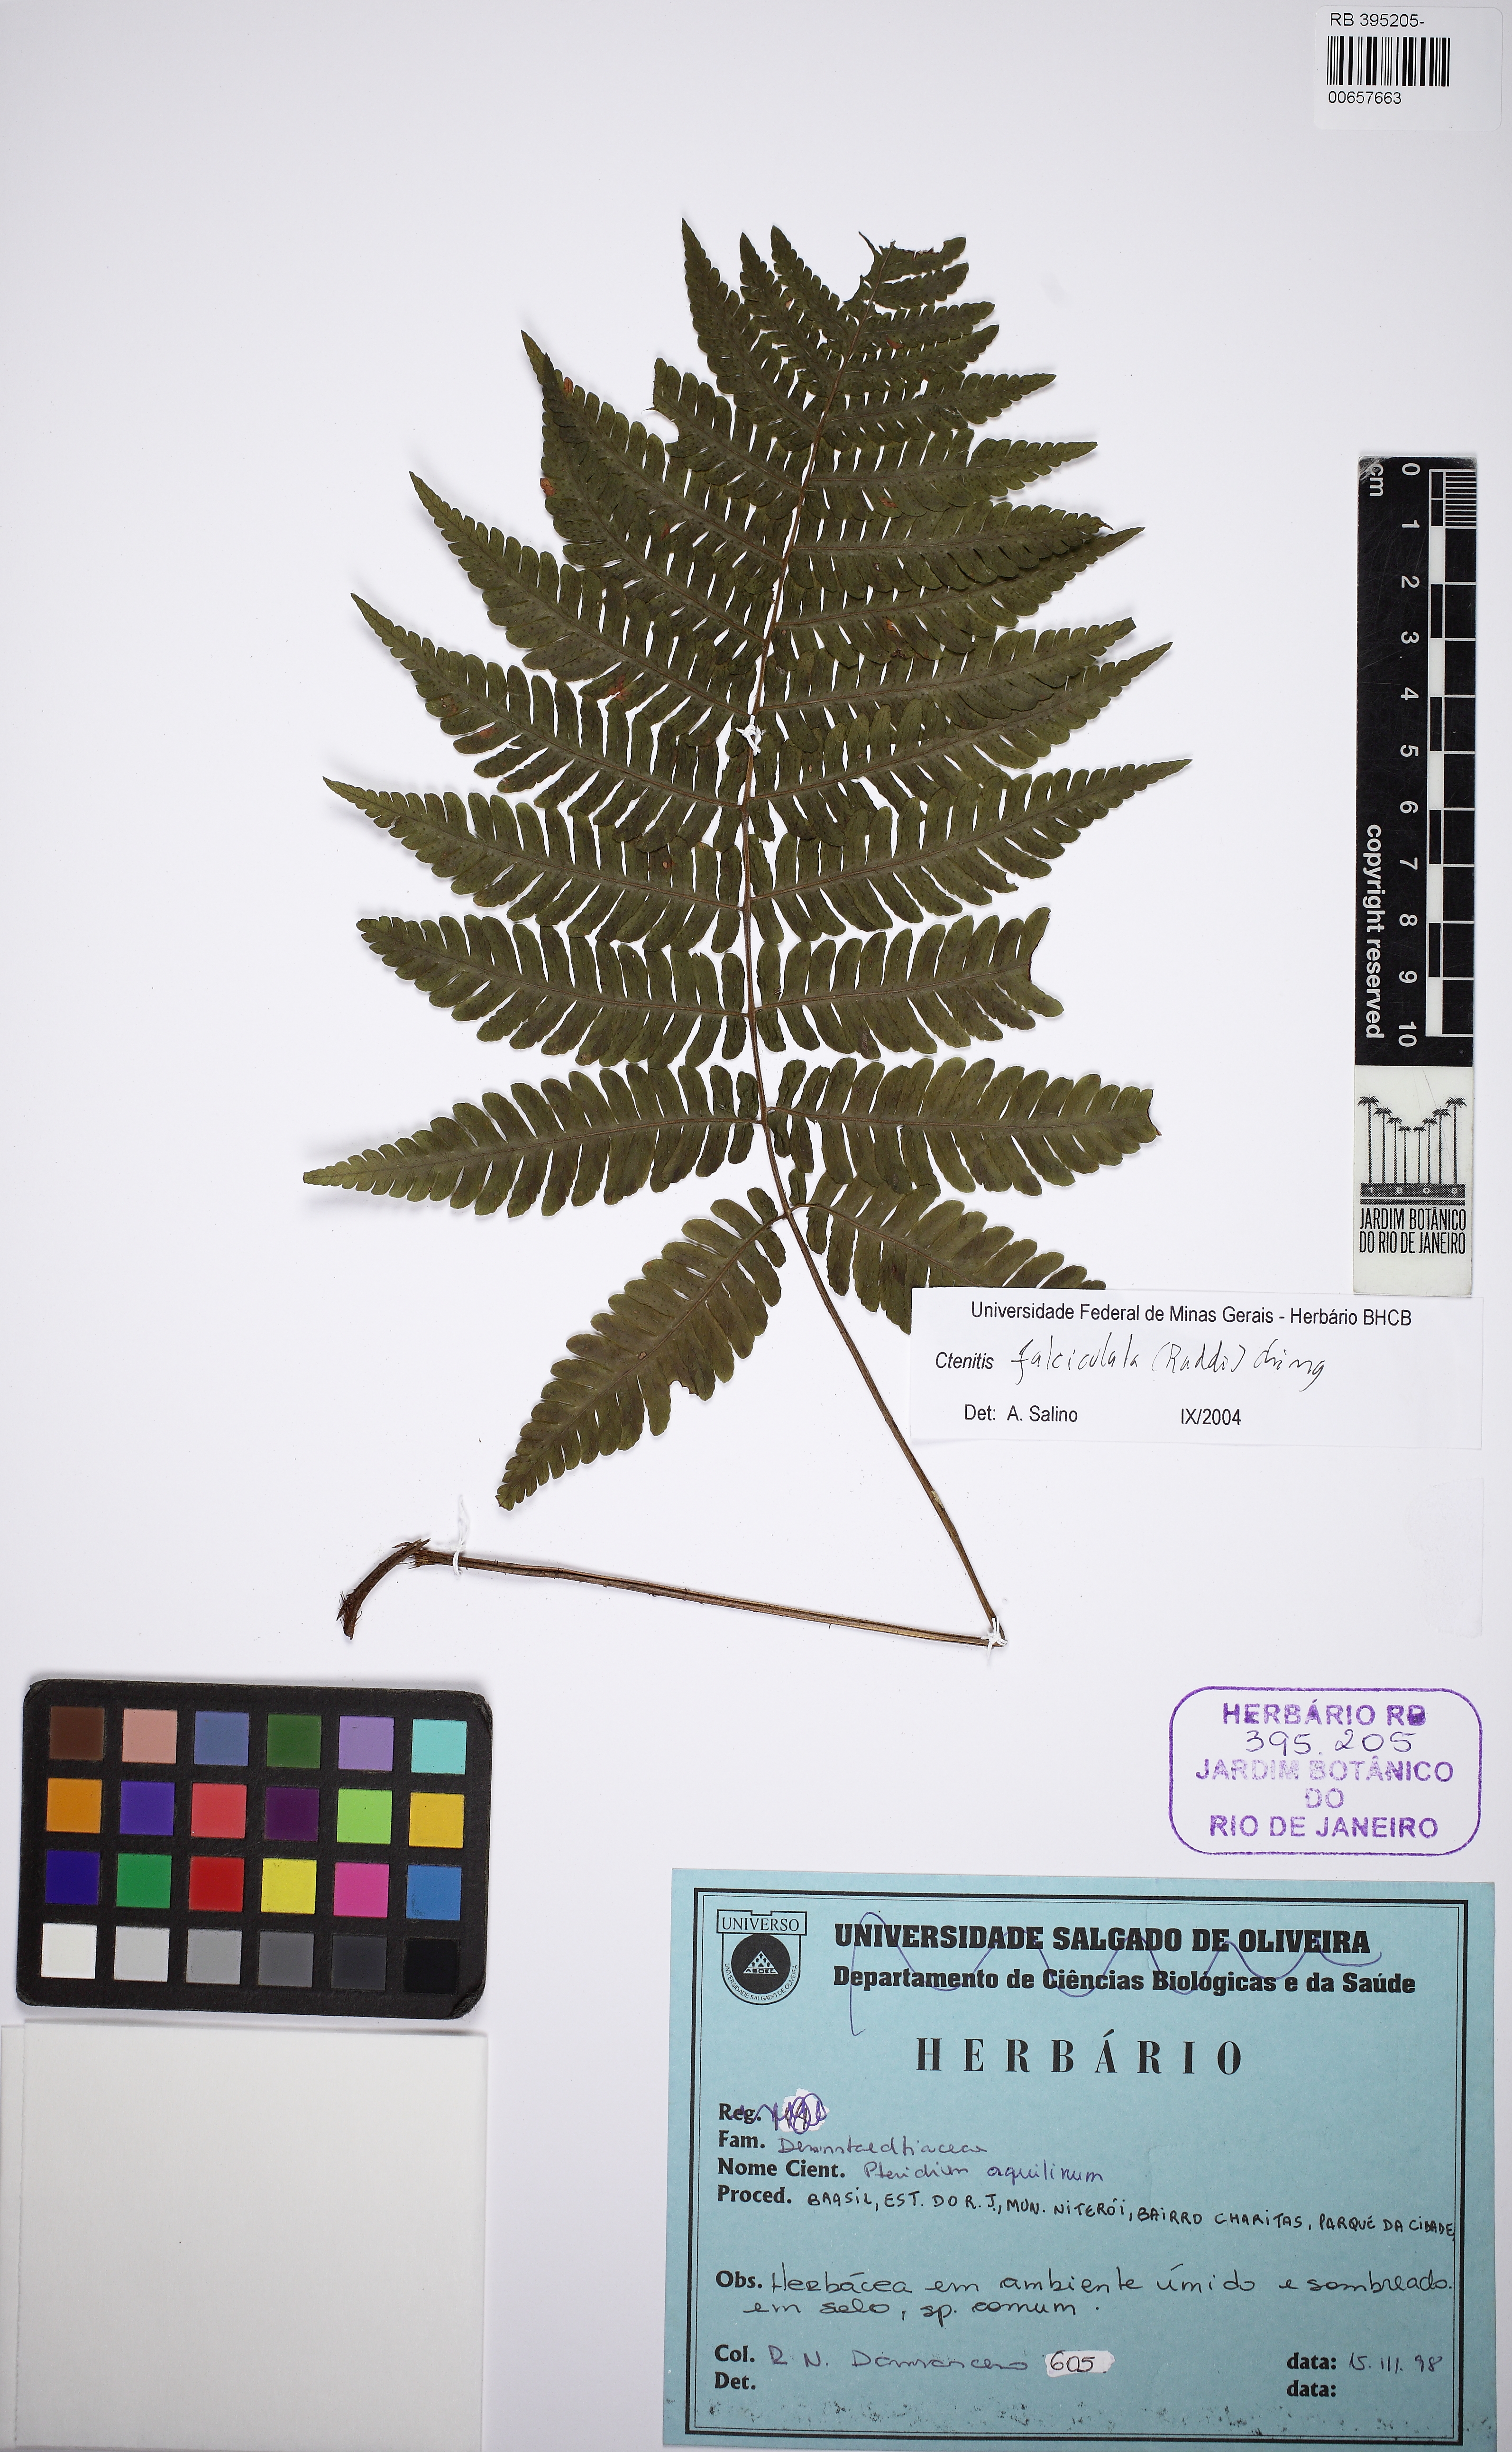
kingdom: Plantae
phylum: Tracheophyta
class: Polypodiopsida
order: Polypodiales
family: Dryopteridaceae
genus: Ctenitis
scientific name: Ctenitis falciculata
